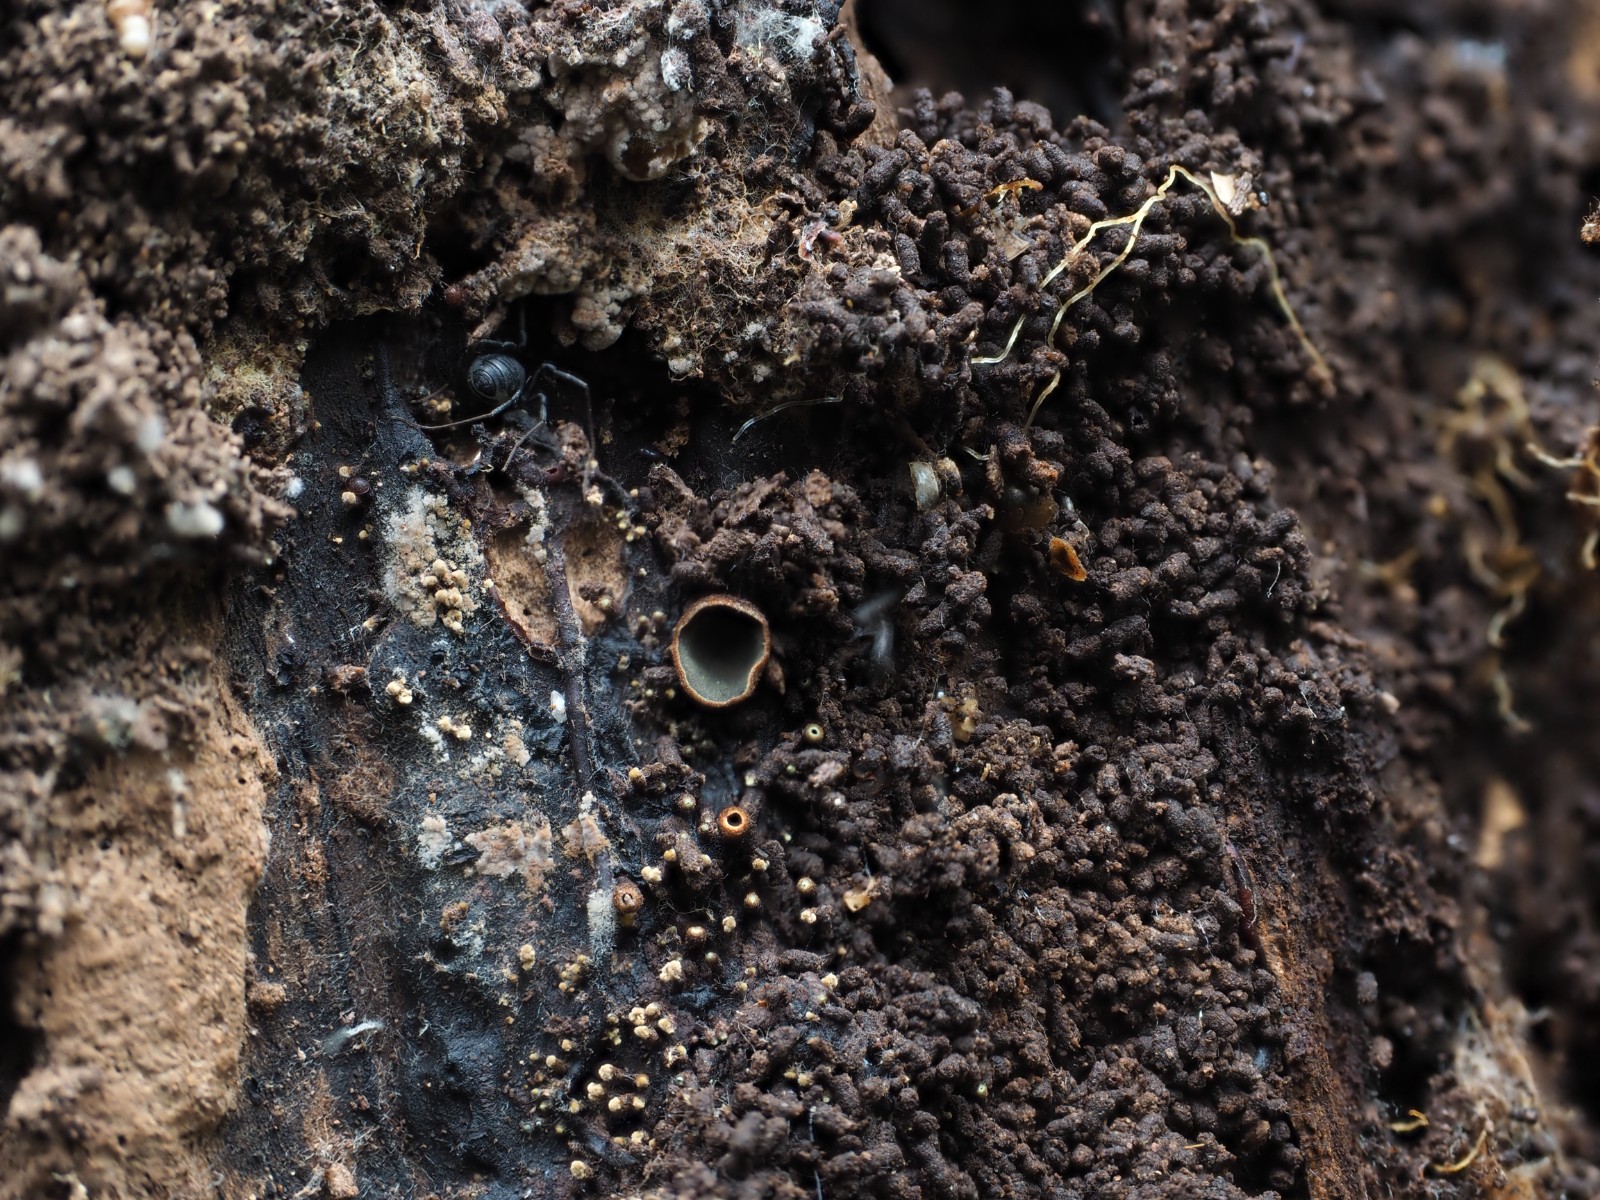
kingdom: Fungi
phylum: Ascomycota
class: Leotiomycetes
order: Helotiales
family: Cordieritidaceae
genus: Diplocarpa
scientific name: Diplocarpa bloxamii
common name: pragthårskive
